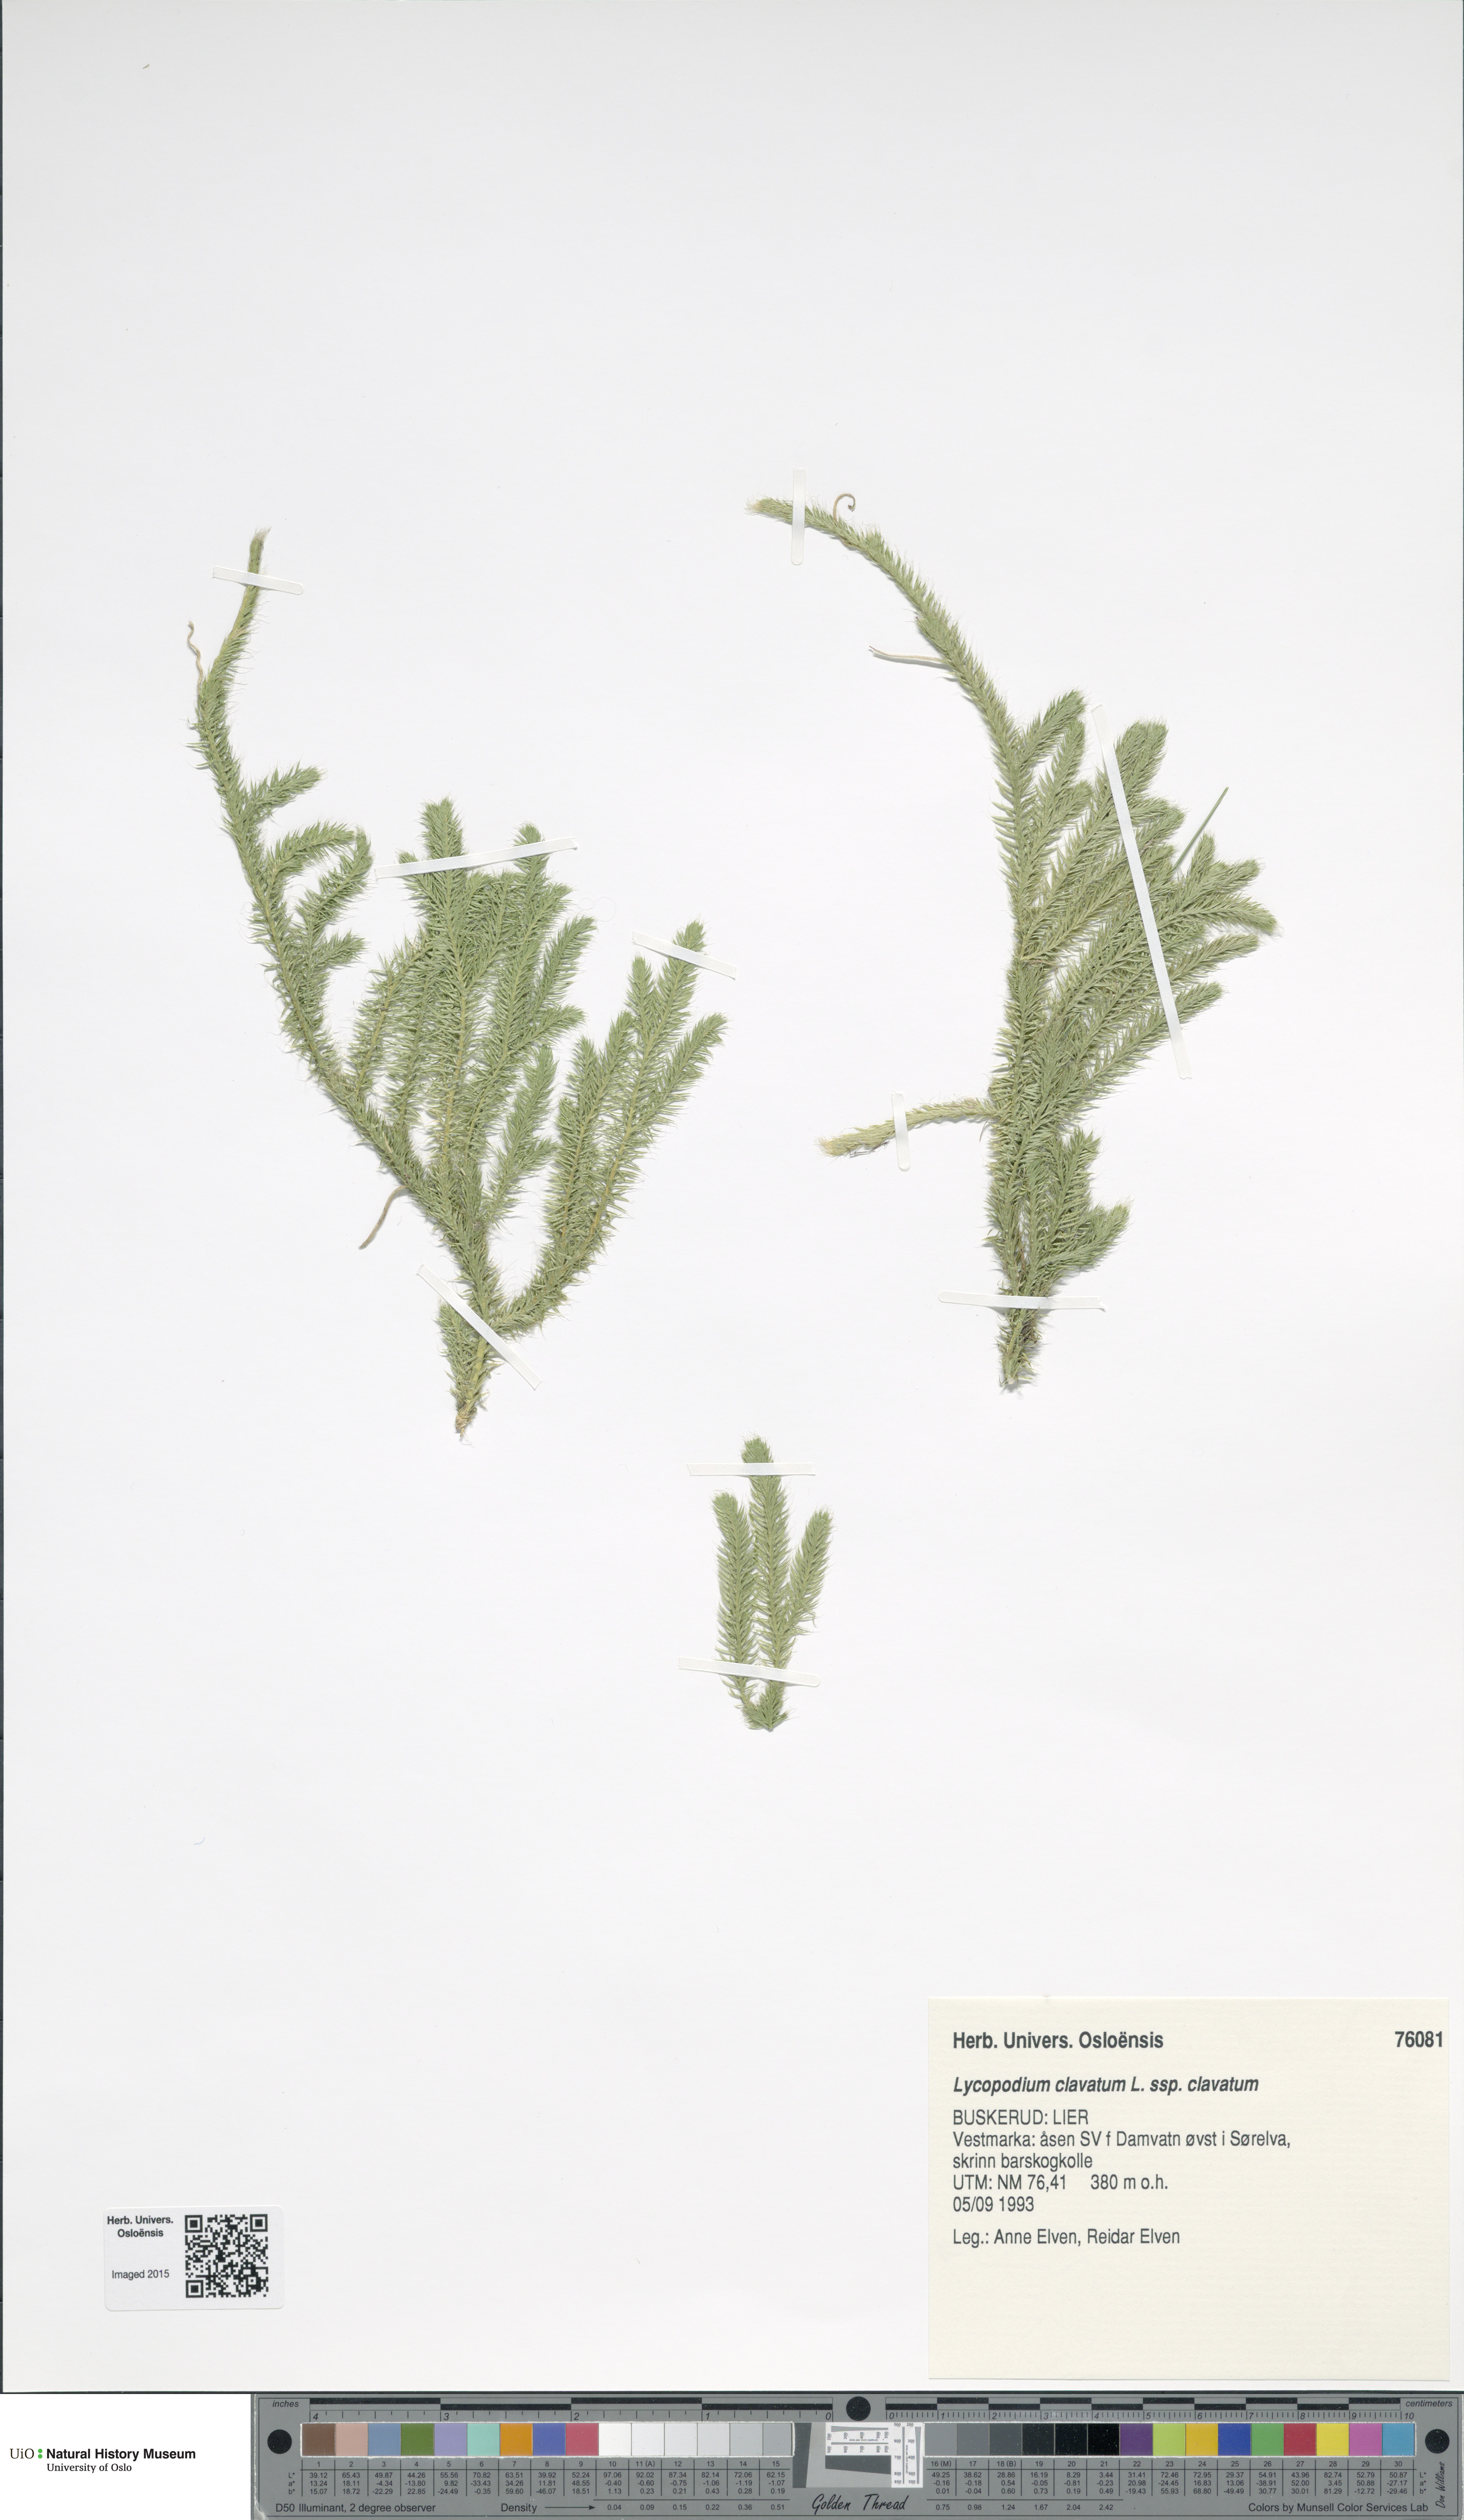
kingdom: Plantae
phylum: Tracheophyta
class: Lycopodiopsida
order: Lycopodiales
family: Lycopodiaceae
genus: Lycopodium
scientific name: Lycopodium clavatum
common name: Stag's-horn clubmoss
